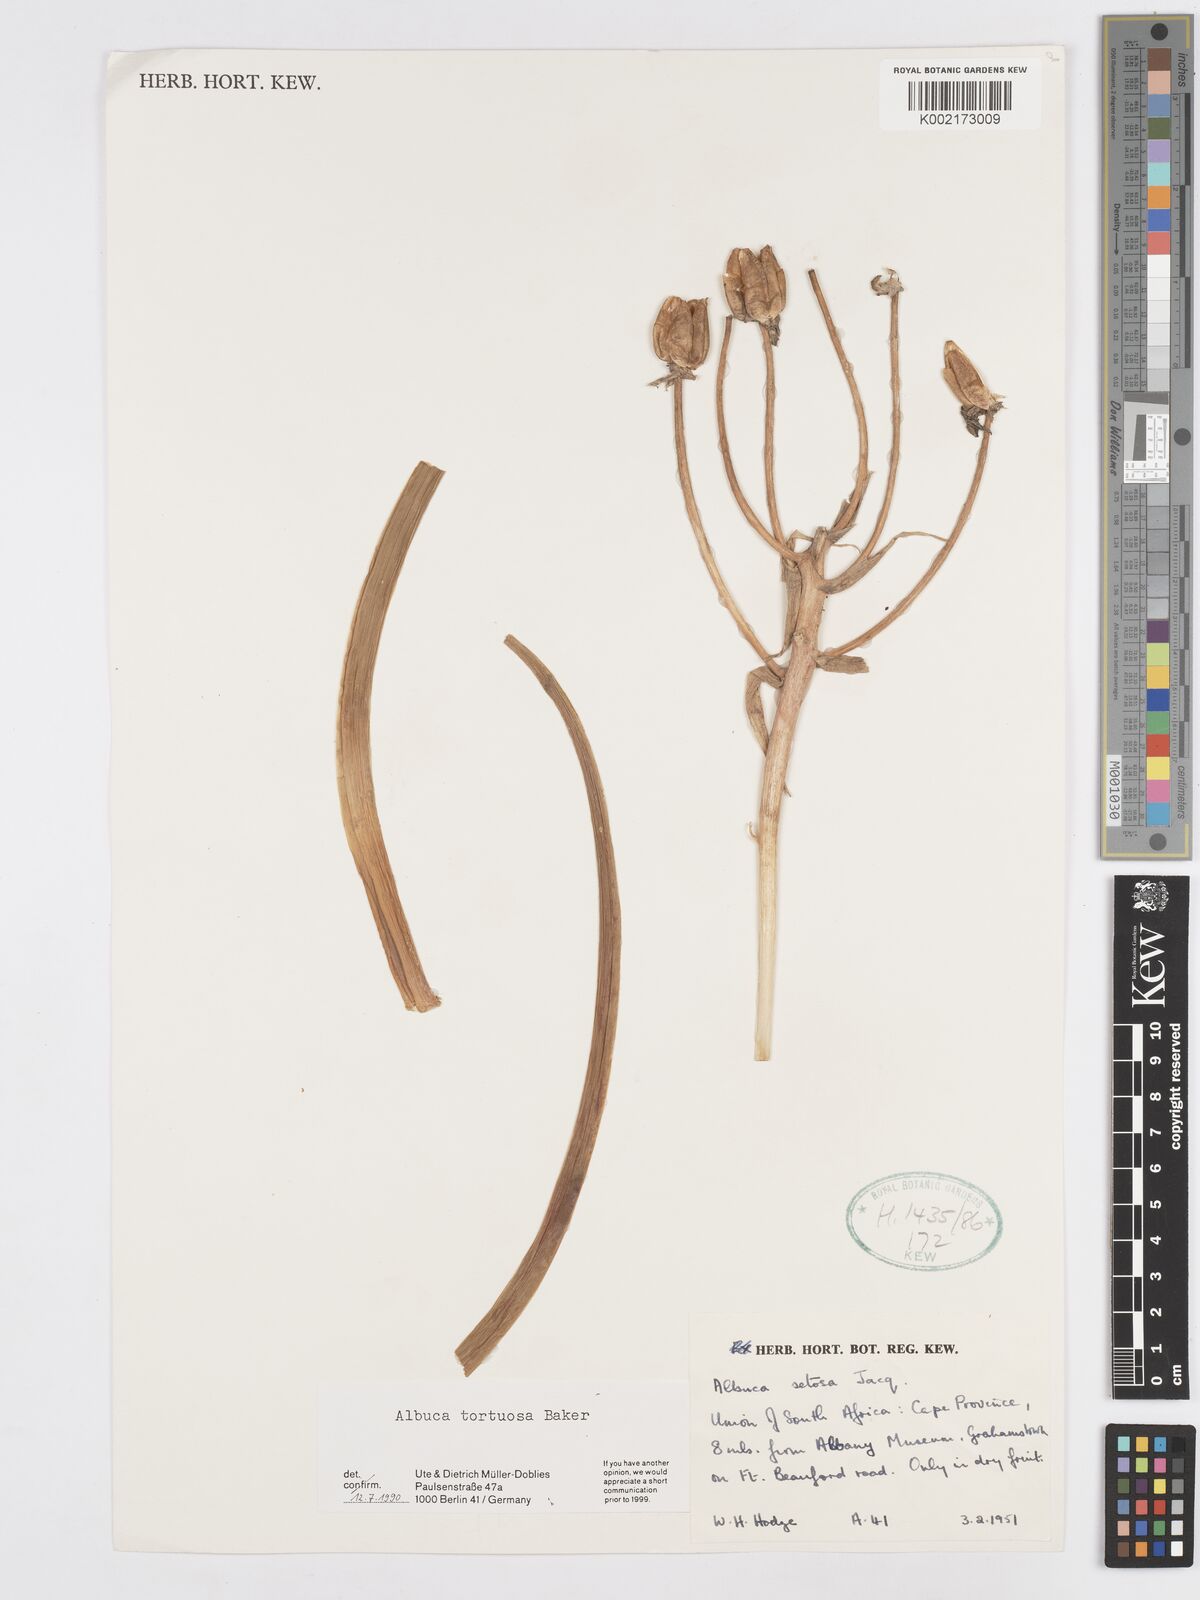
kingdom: Plantae
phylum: Tracheophyta
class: Liliopsida
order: Asparagales
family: Asparagaceae
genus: Albuca
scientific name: Albuca tortuosa
